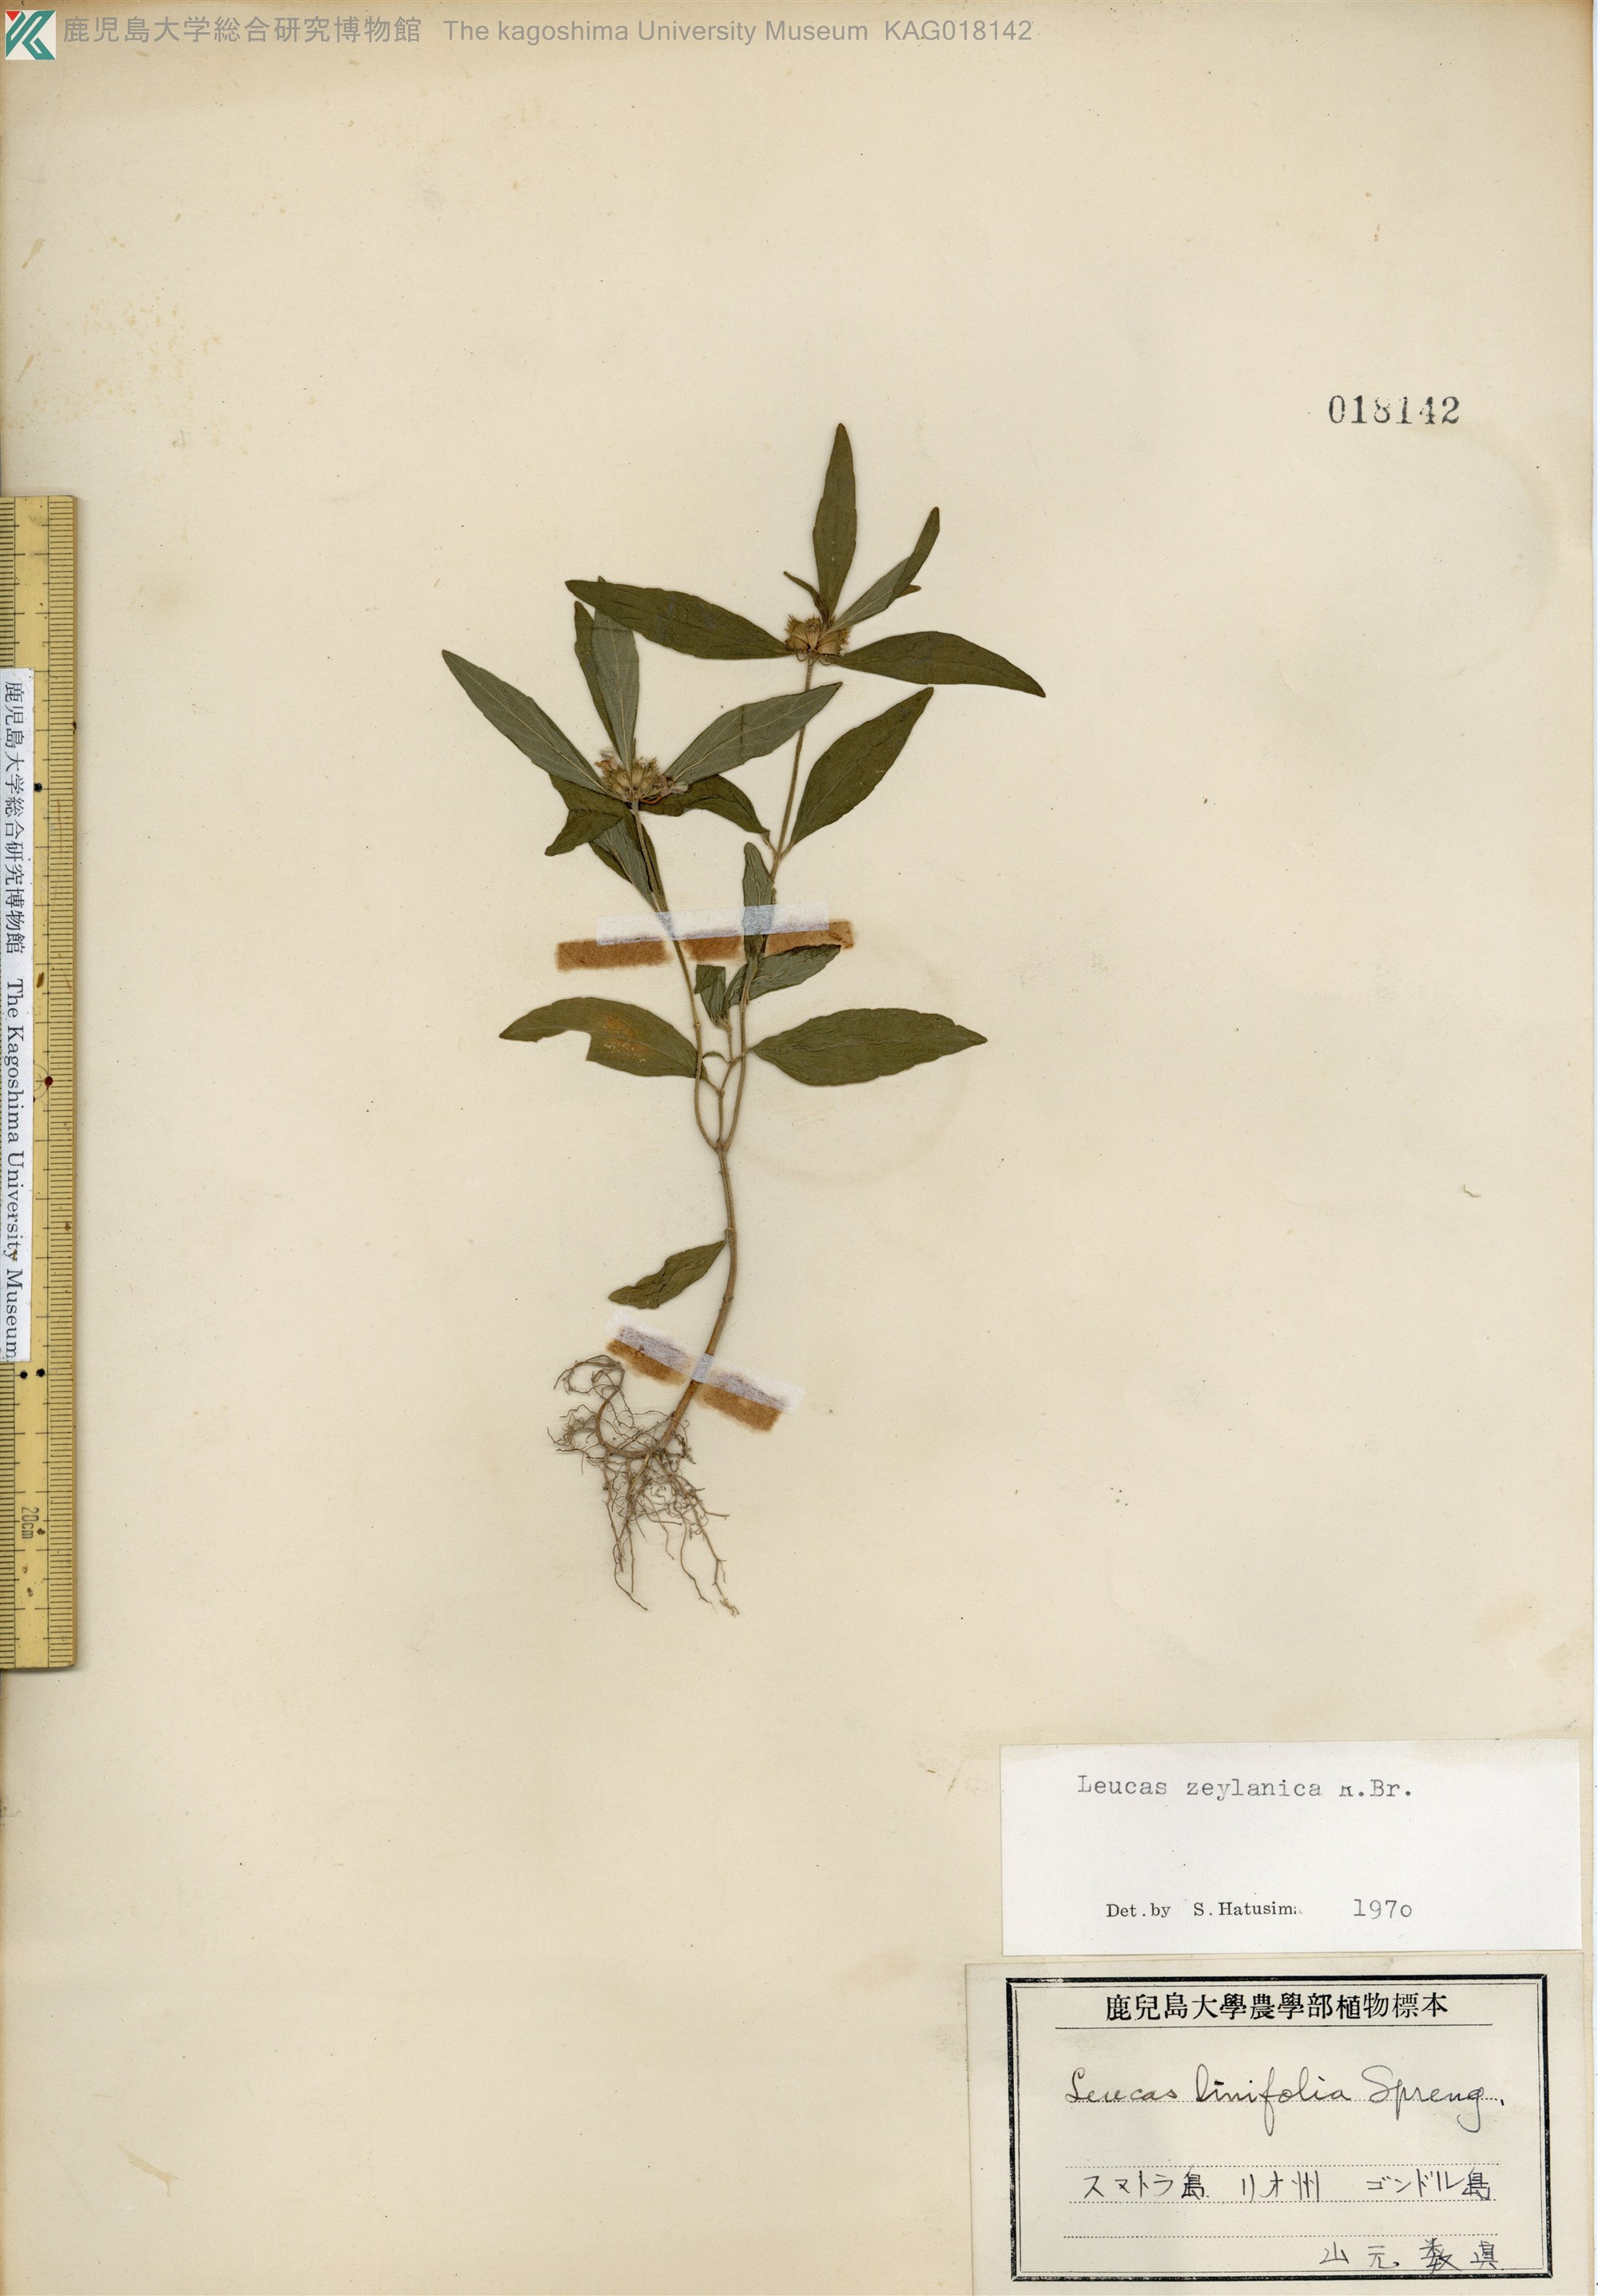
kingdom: Plantae
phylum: Tracheophyta
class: Magnoliopsida
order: Lamiales
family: Lamiaceae
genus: Leucas
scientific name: Leucas zeylanica
